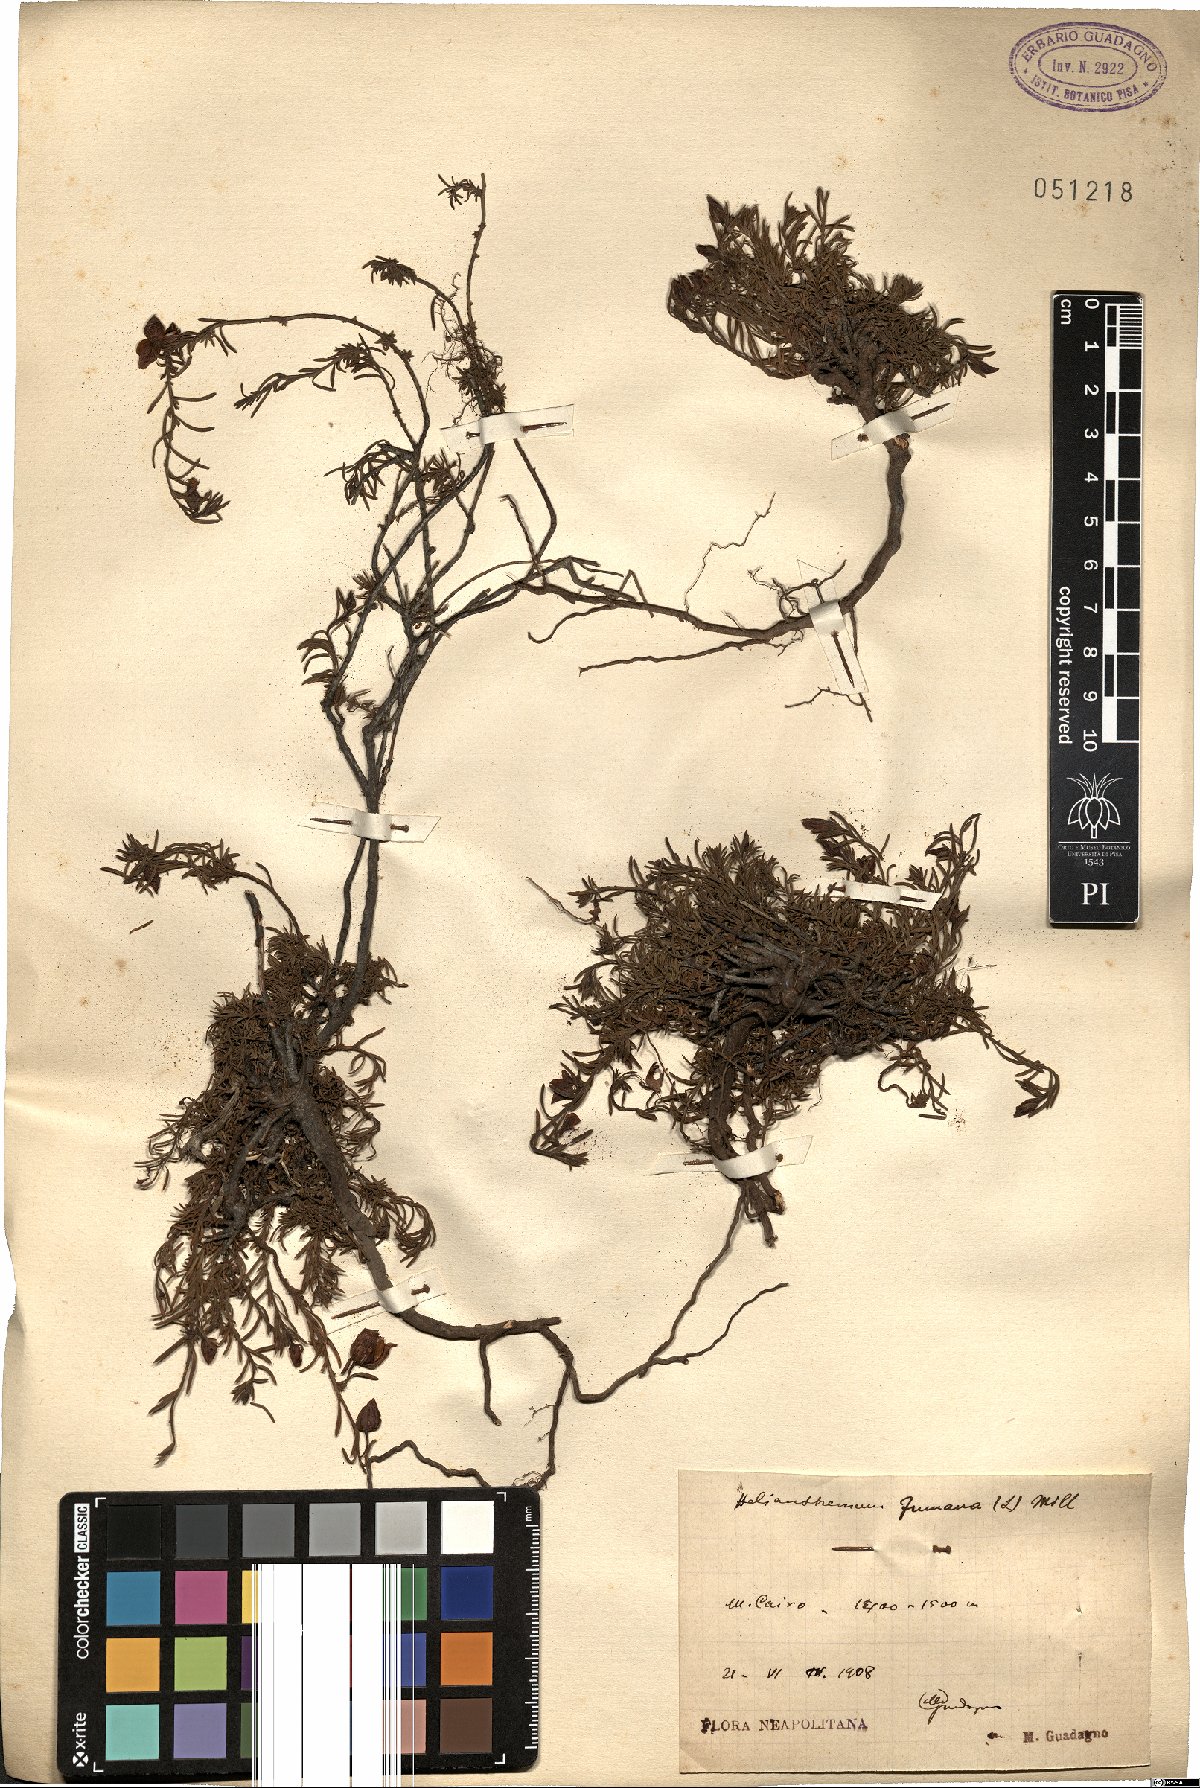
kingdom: Plantae
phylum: Tracheophyta
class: Magnoliopsida
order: Malvales
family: Cistaceae
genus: Fumana
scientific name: Fumana procumbens
